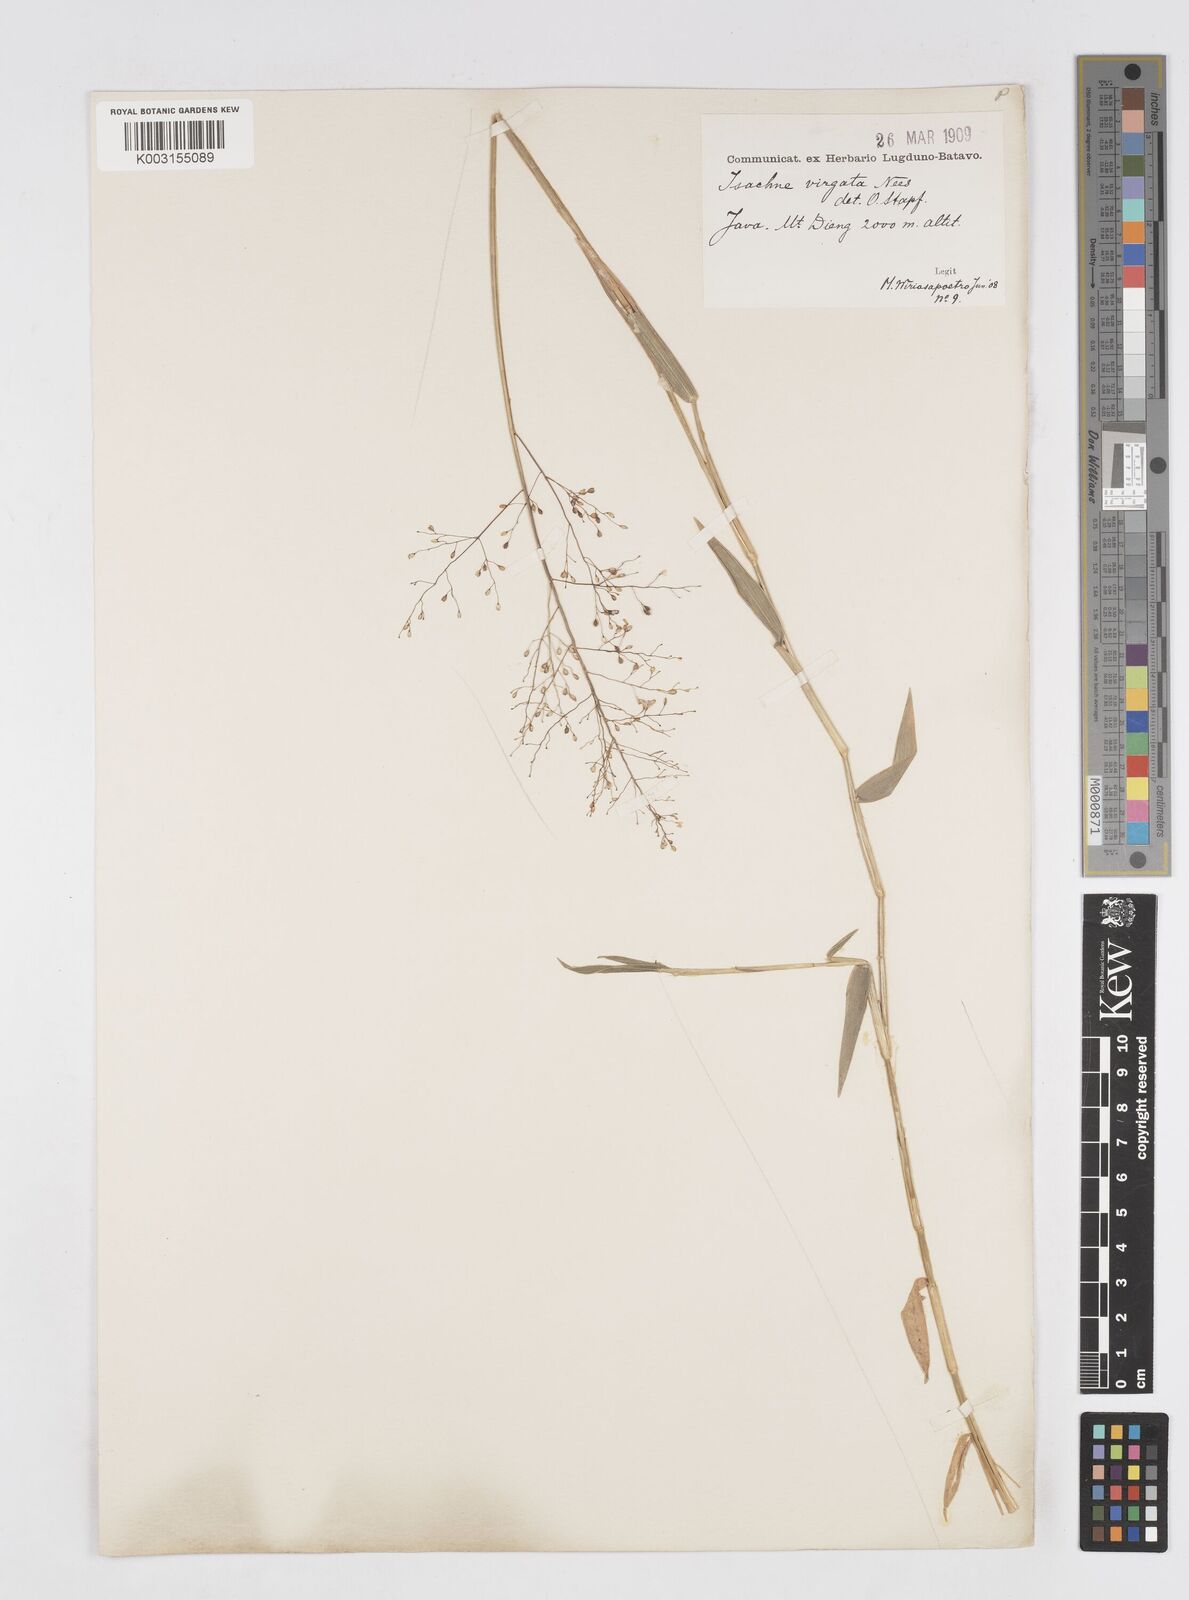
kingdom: Plantae
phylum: Tracheophyta
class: Liliopsida
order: Poales
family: Poaceae
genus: Isachne
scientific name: Isachne globosa
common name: Swamp millet
